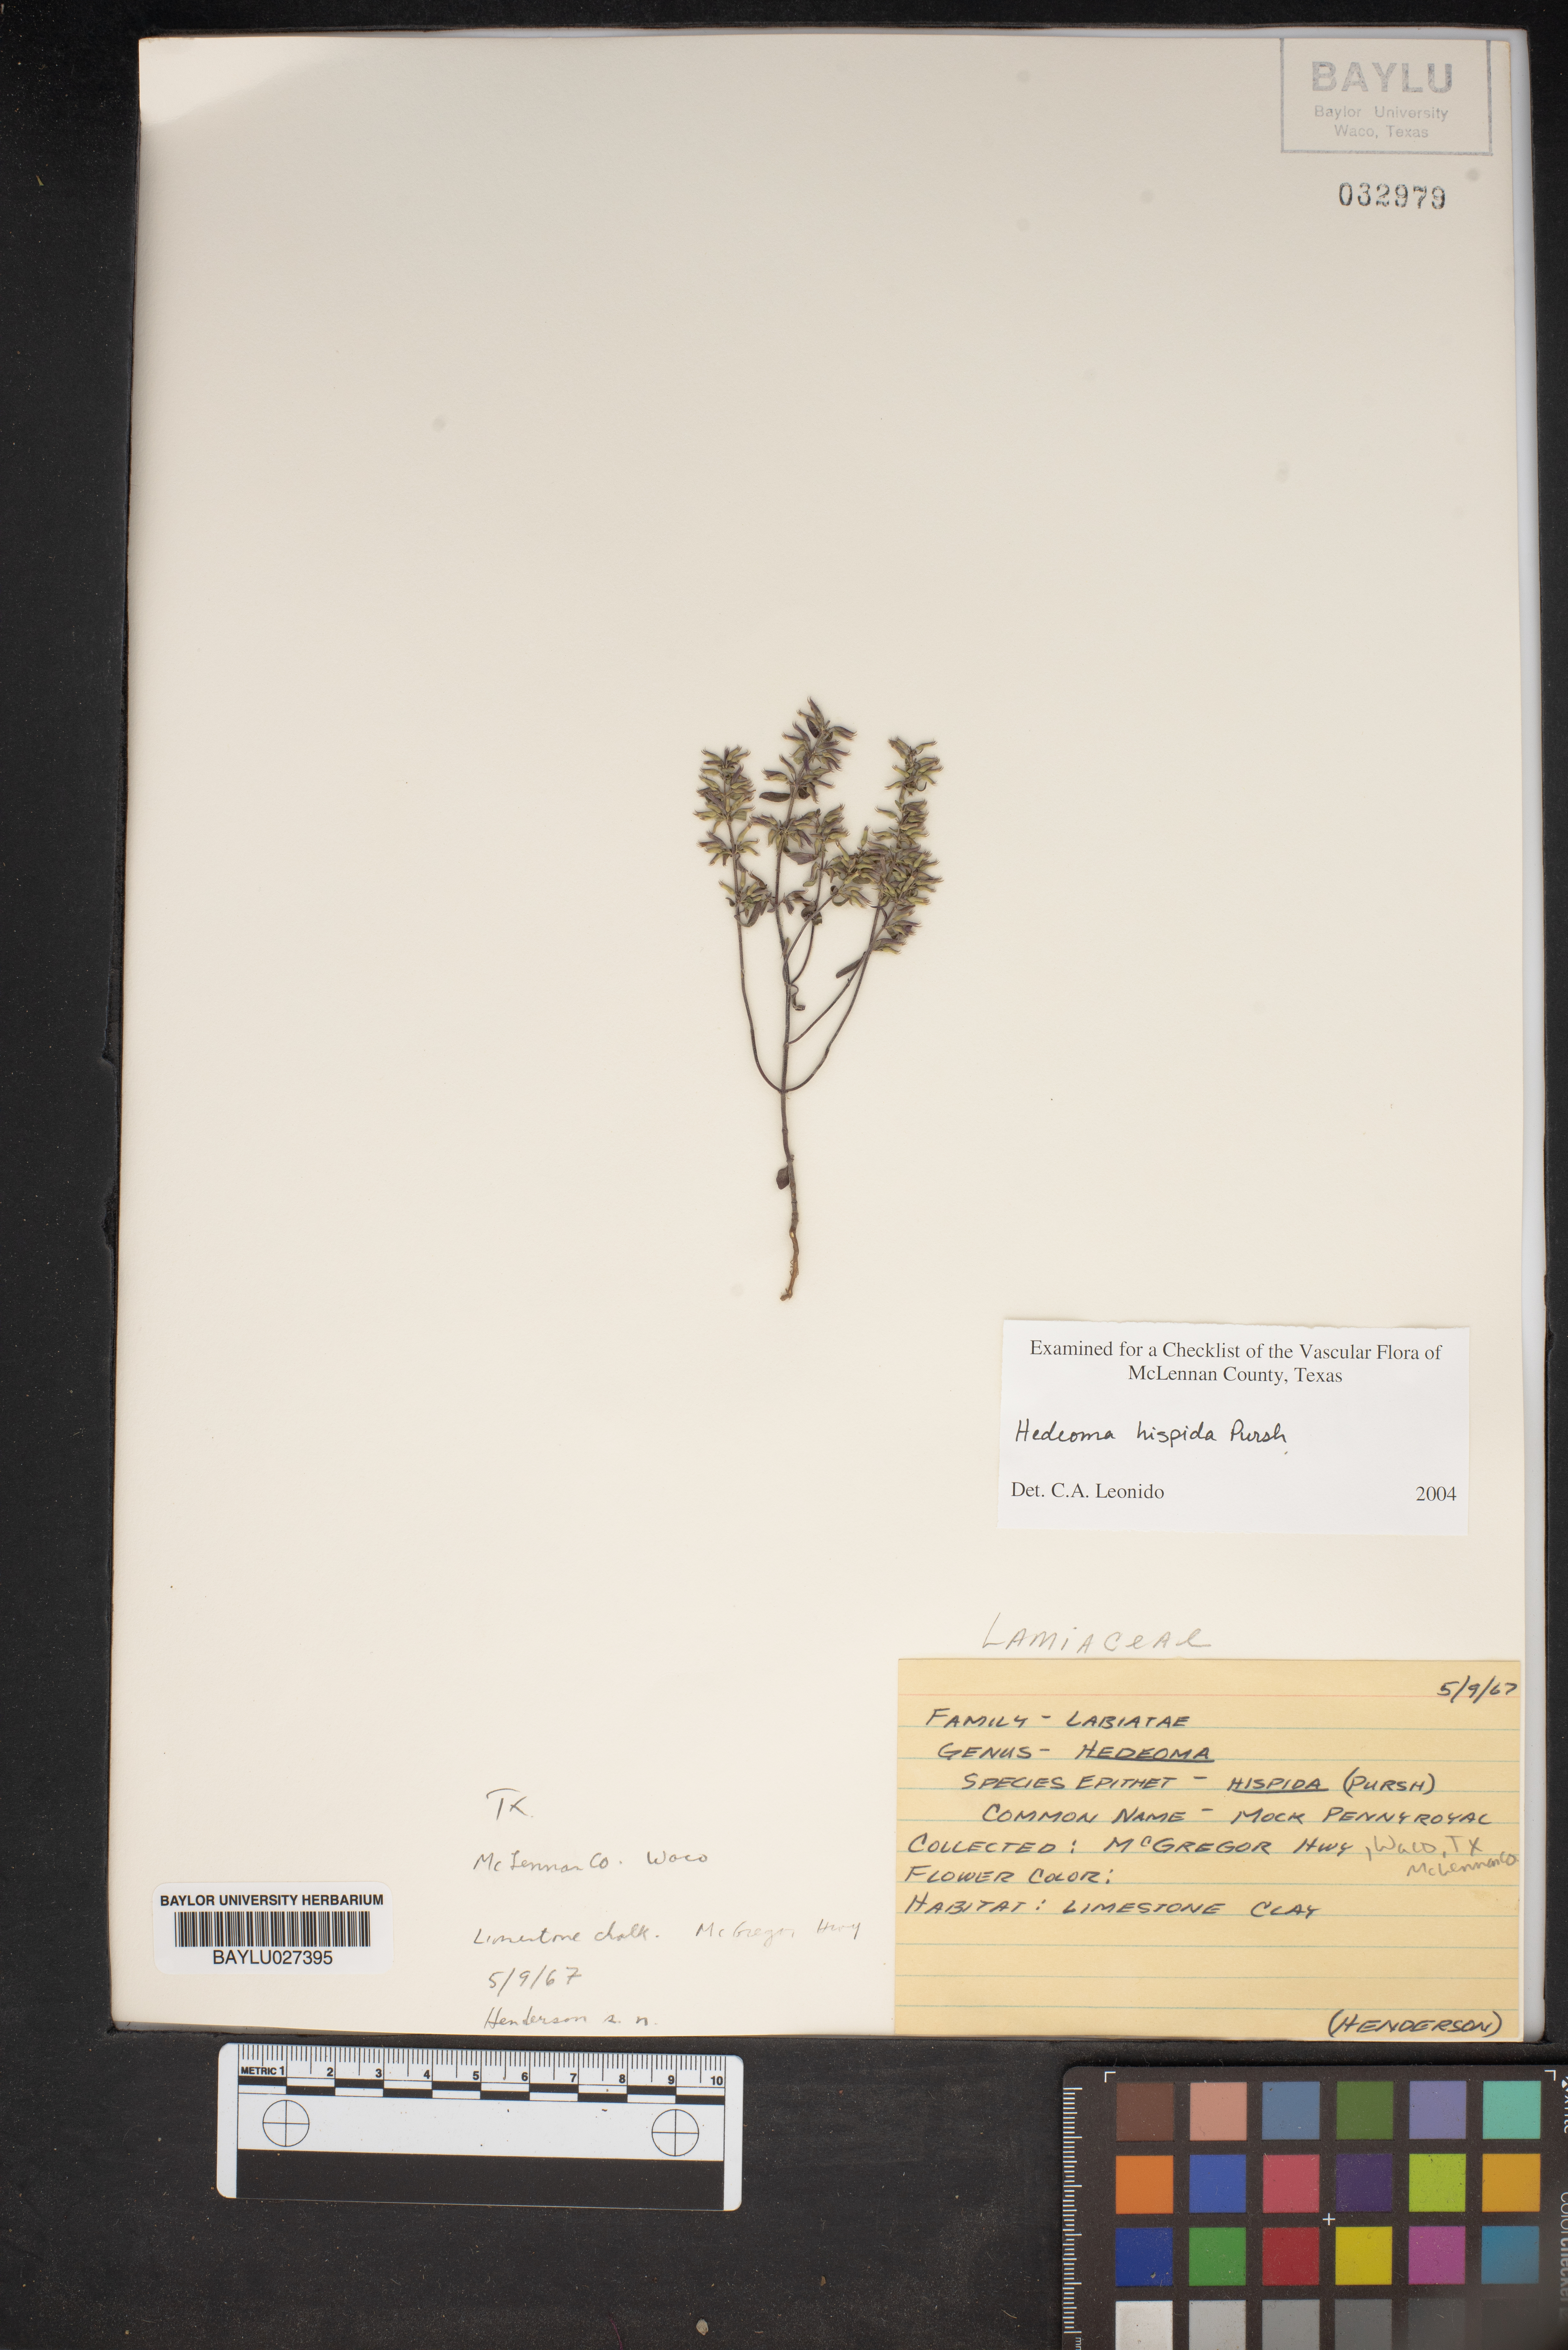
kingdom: Plantae
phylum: Tracheophyta
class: Magnoliopsida
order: Lamiales
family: Lamiaceae
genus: Hedeoma
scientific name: Hedeoma hispida
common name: Mock pennyroyal
